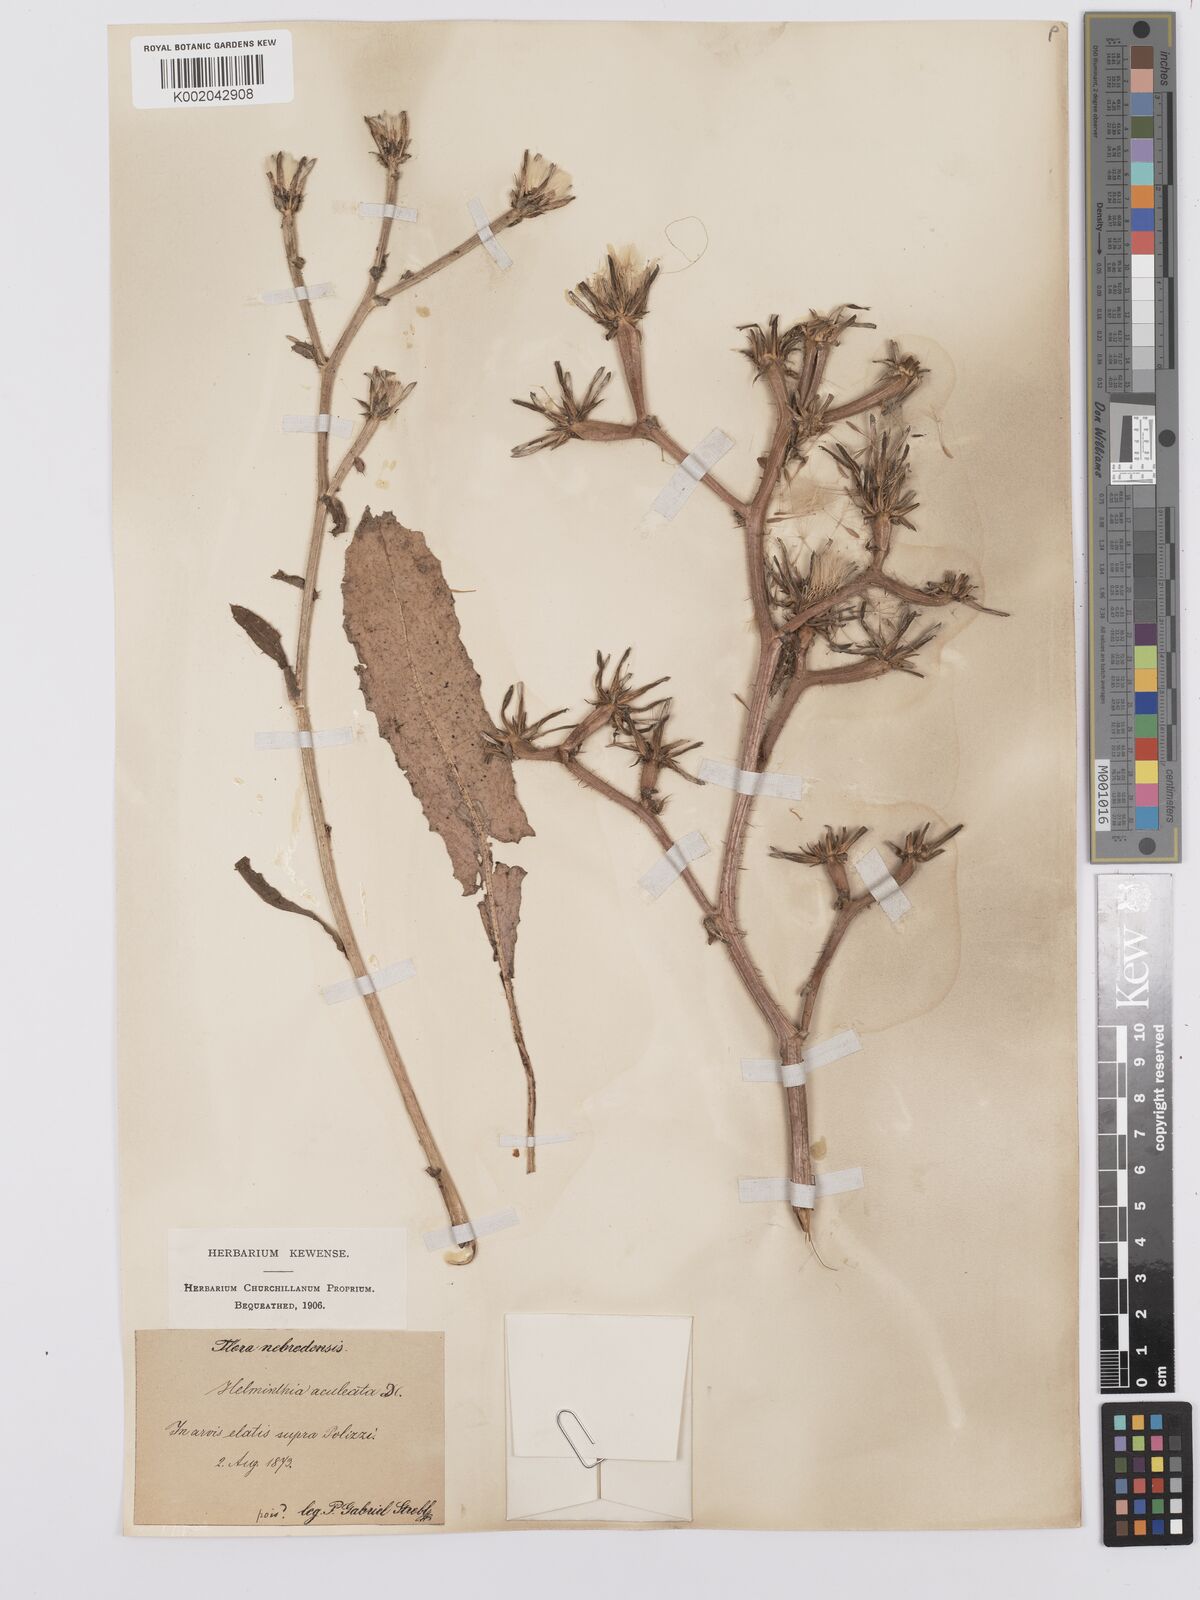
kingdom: Plantae
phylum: Tracheophyta
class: Magnoliopsida
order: Asterales
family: Asteraceae
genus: Helminthotheca
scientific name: Helminthotheca aculeata
